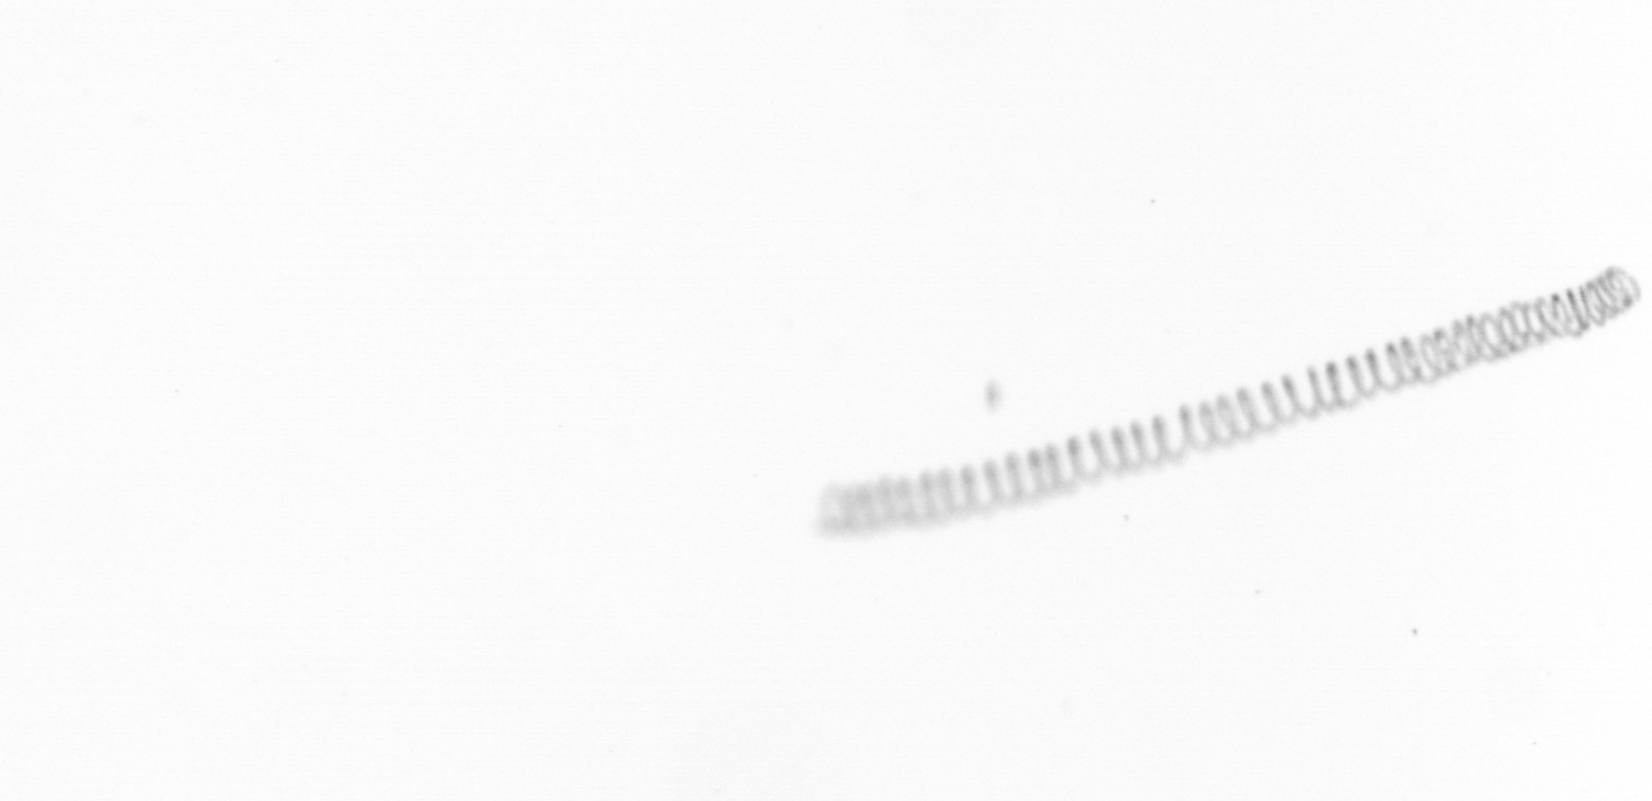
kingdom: Chromista
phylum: Ochrophyta
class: Bacillariophyceae
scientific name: Bacillariophyceae
